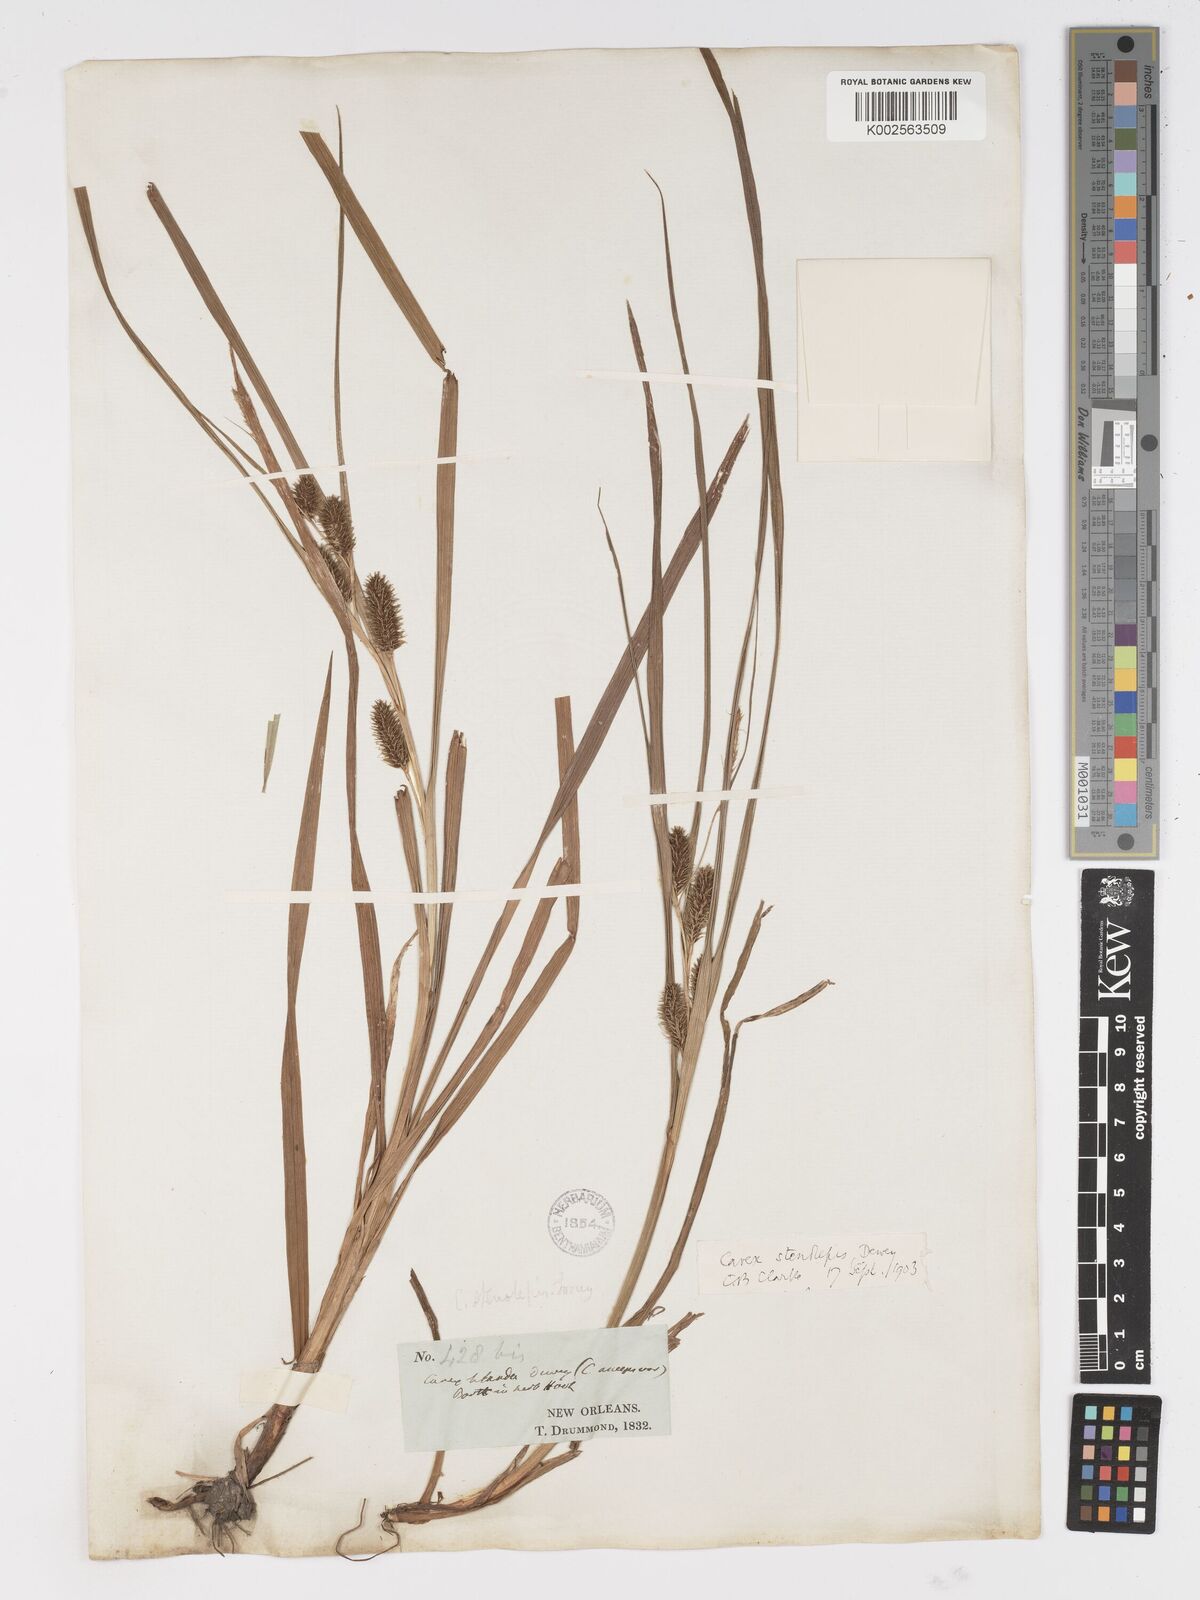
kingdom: Plantae
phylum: Tracheophyta
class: Liliopsida
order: Poales
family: Cyperaceae
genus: Carex
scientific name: Carex frankii
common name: Frank's sedge
